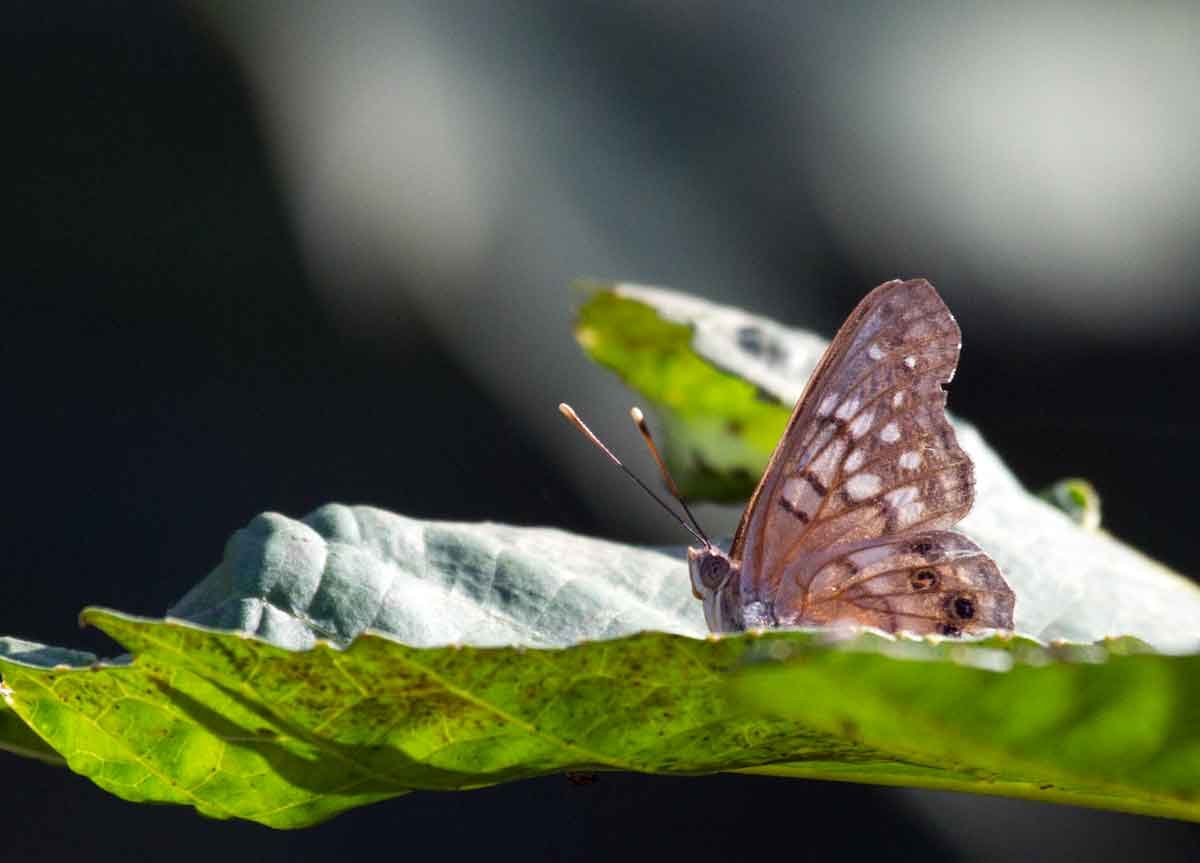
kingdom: Animalia
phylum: Arthropoda
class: Insecta
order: Lepidoptera
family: Nymphalidae
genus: Asterocampa
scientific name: Asterocampa clyton
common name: Tawny Emperor
